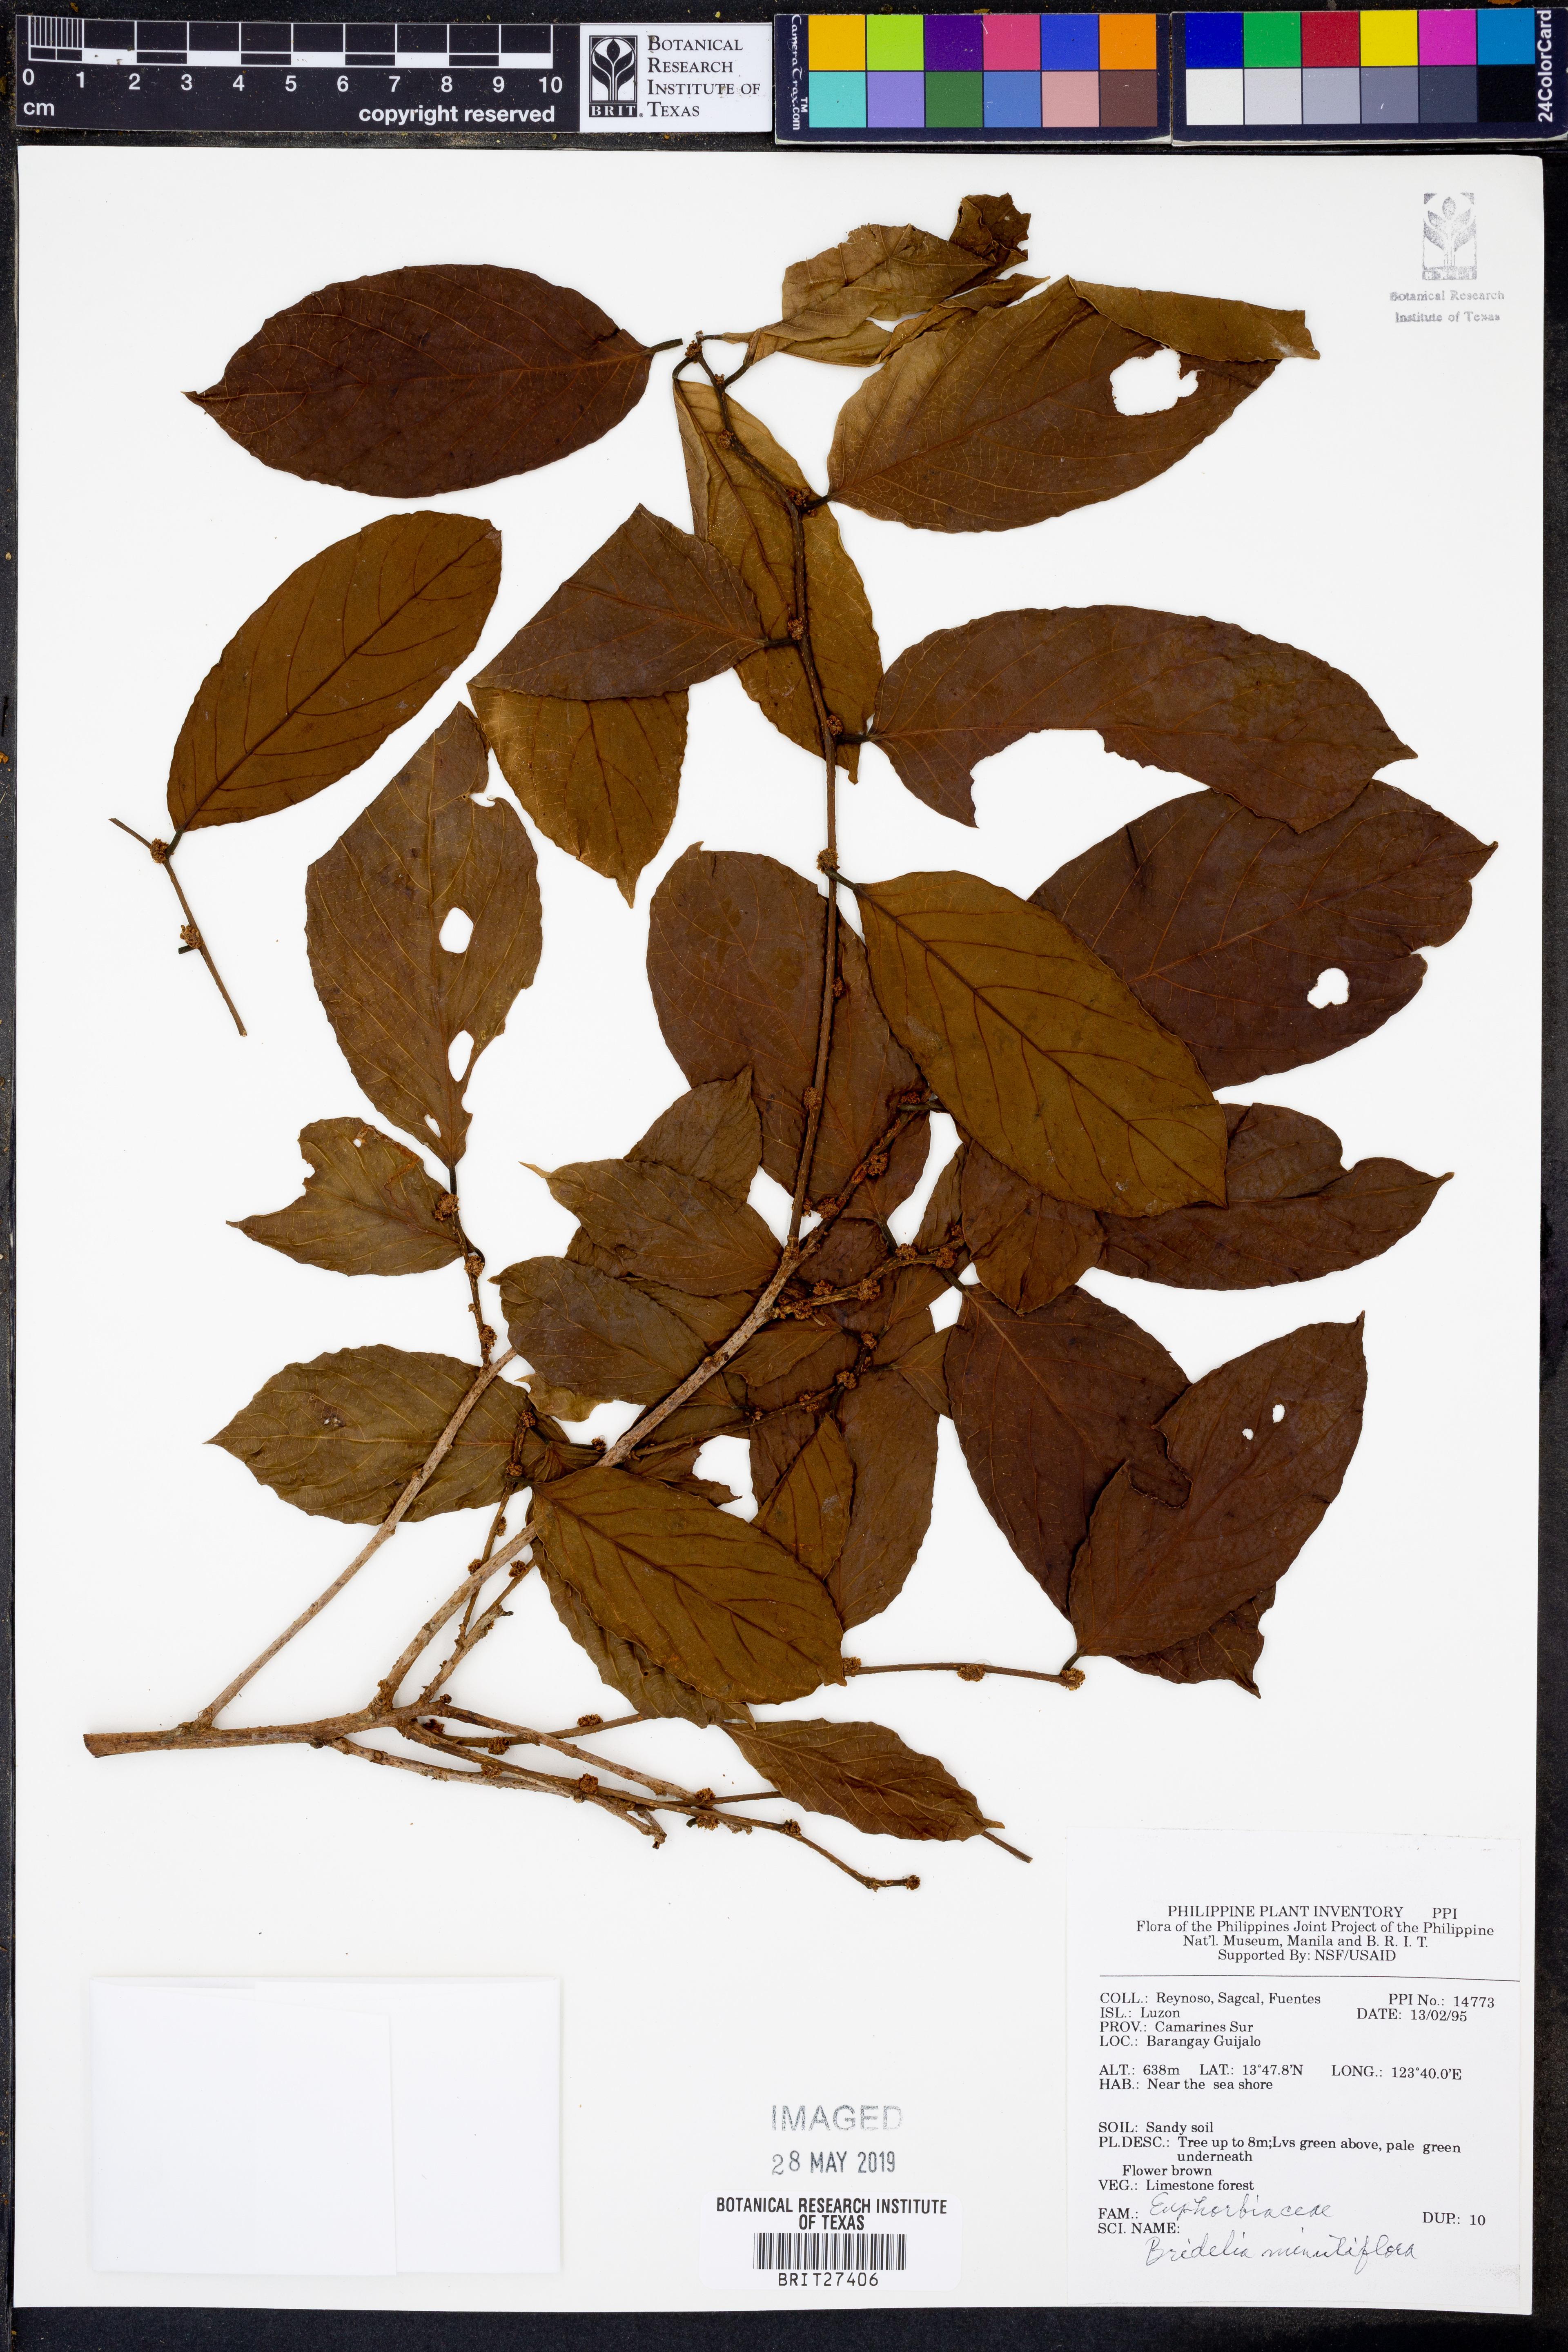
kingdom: Plantae
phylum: Tracheophyta
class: Magnoliopsida
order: Malpighiales
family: Phyllanthaceae
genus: Bridelia
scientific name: Bridelia insulana
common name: Grey-birch
